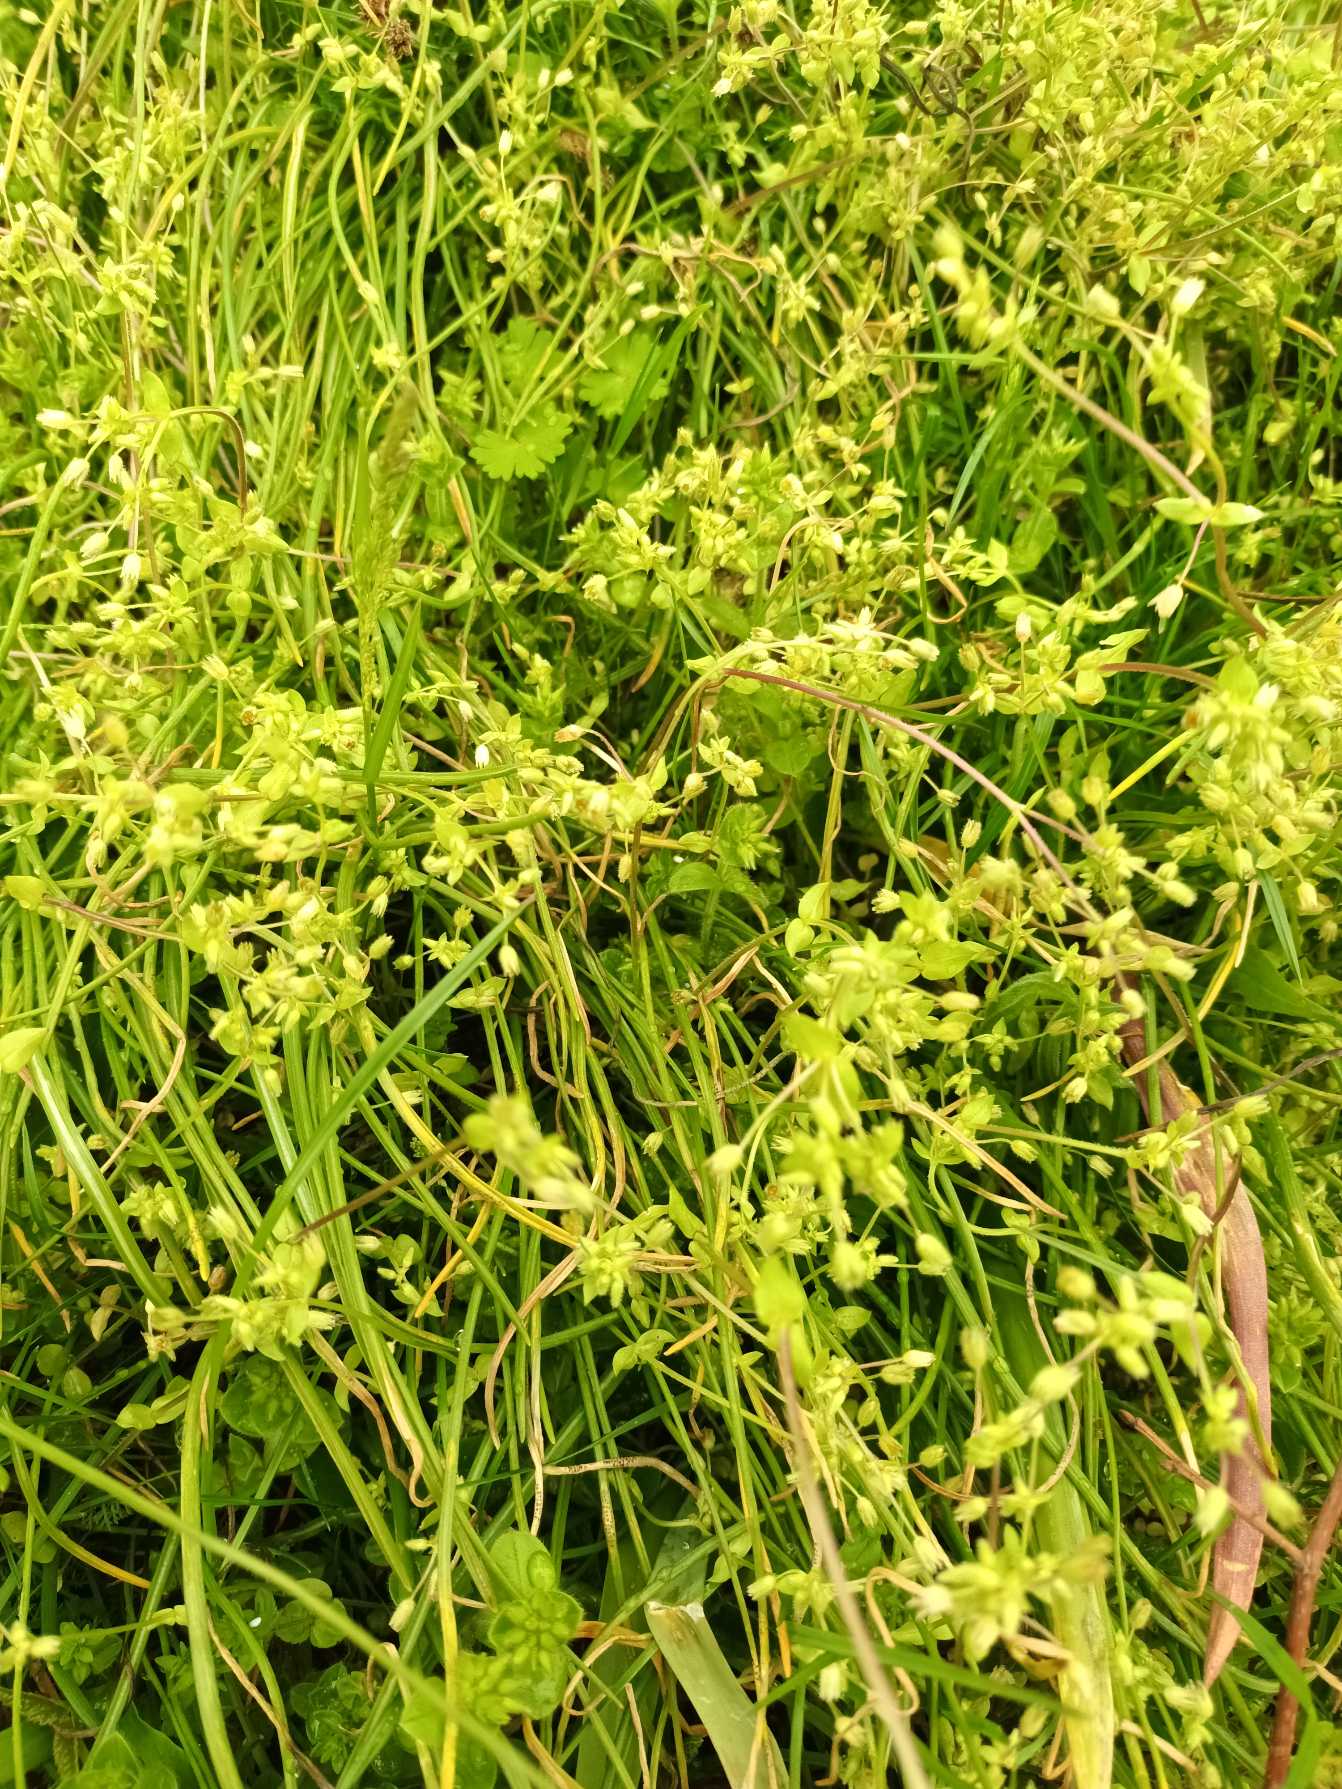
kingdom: Plantae
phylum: Tracheophyta
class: Magnoliopsida
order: Caryophyllales
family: Caryophyllaceae
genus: Stellaria
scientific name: Stellaria apetala
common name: Bleg fuglegræs
